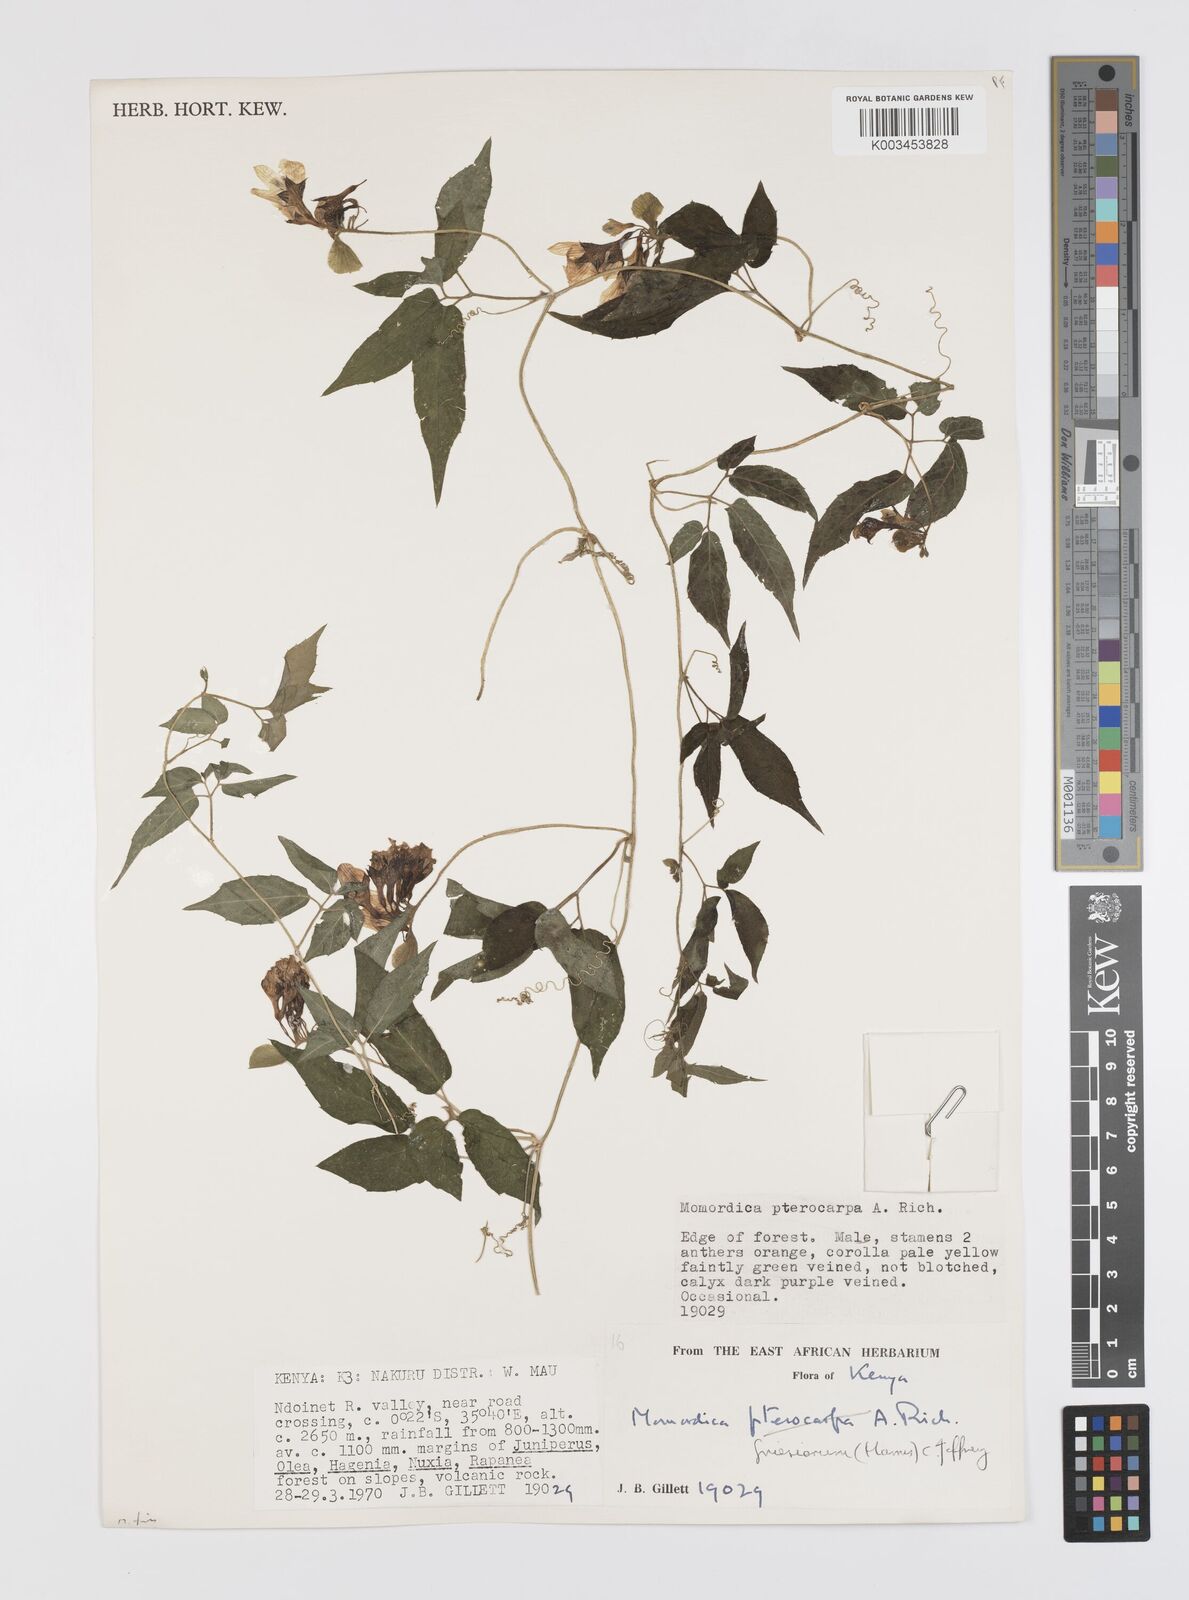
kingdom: Plantae
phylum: Tracheophyta
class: Magnoliopsida
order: Cucurbitales
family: Cucurbitaceae
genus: Momordica
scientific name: Momordica friesiorum
